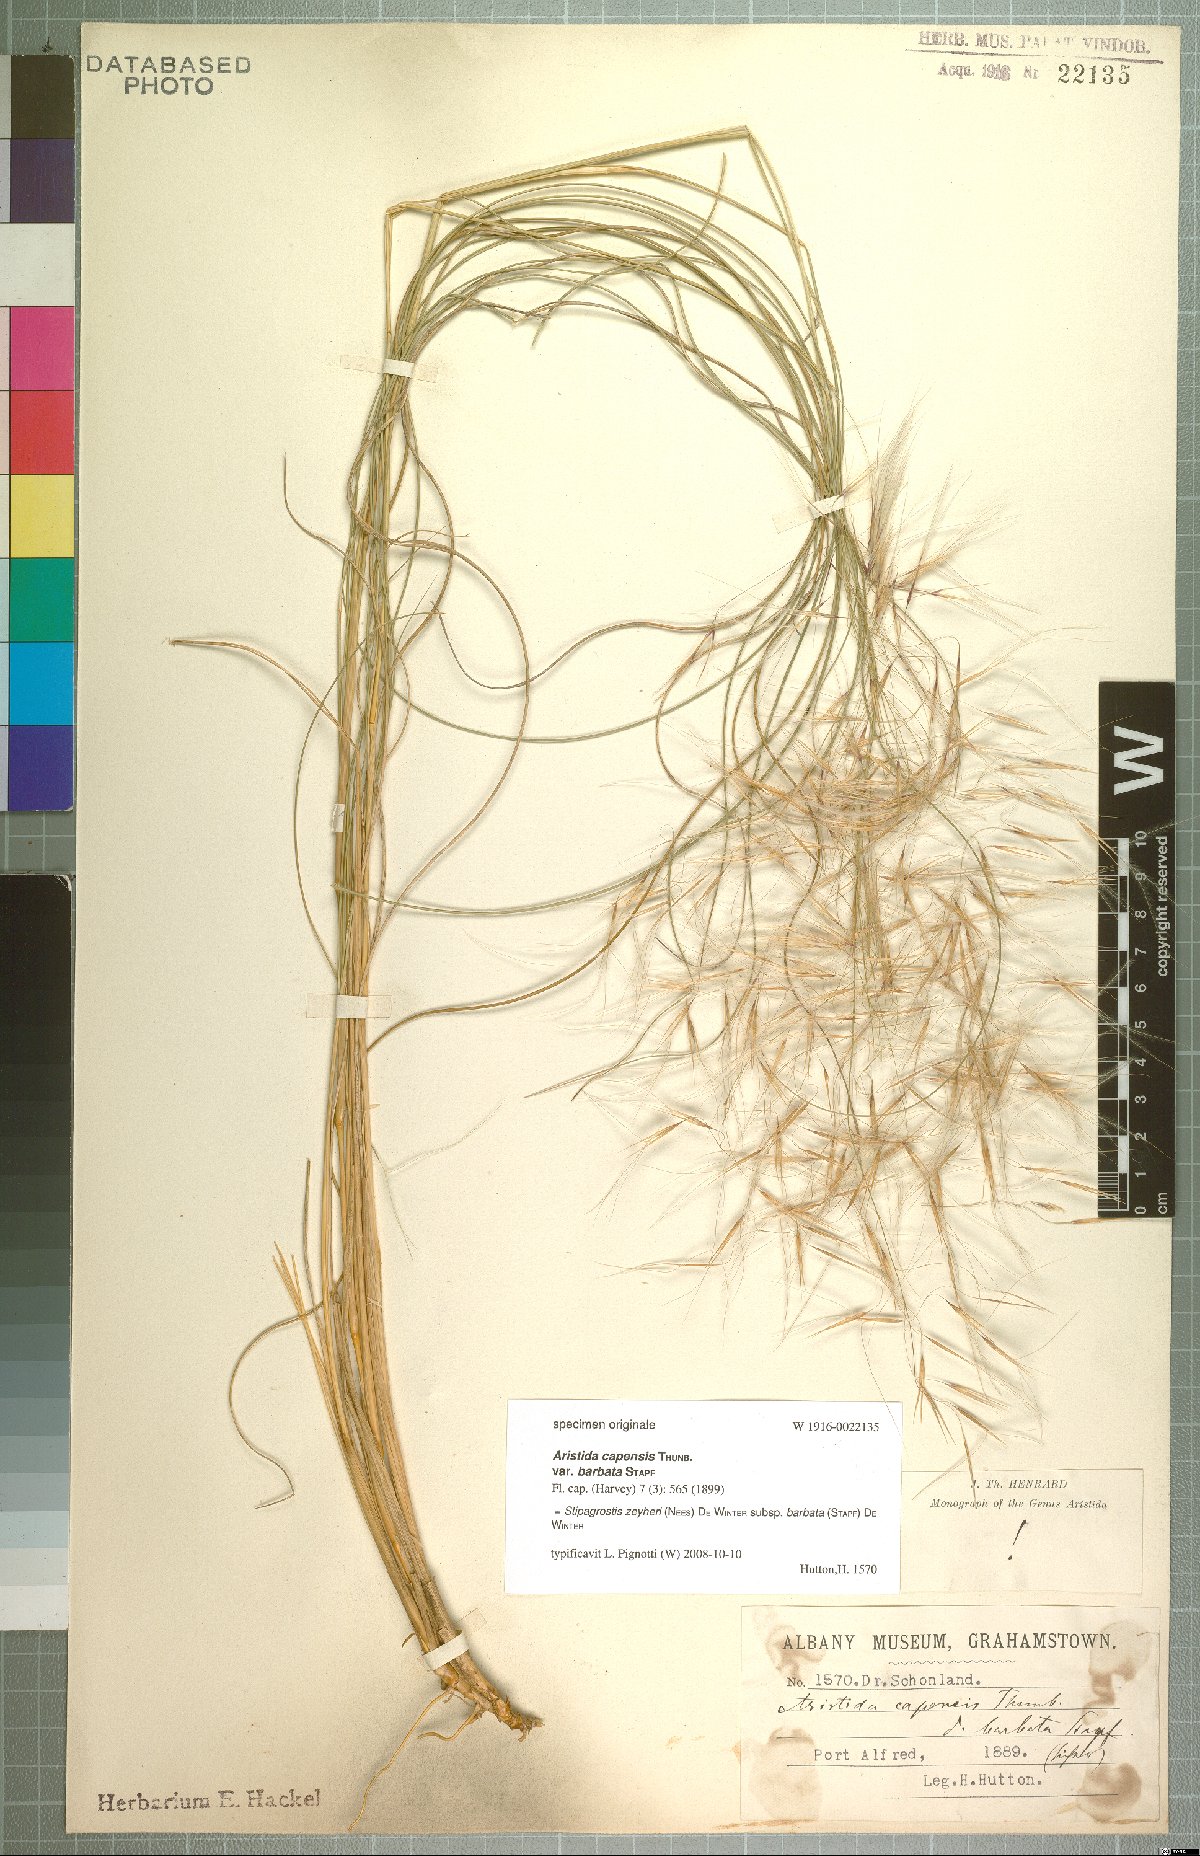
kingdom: Plantae
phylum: Tracheophyta
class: Liliopsida
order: Poales
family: Poaceae
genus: Stipagrostis
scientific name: Stipagrostis zeyheri
